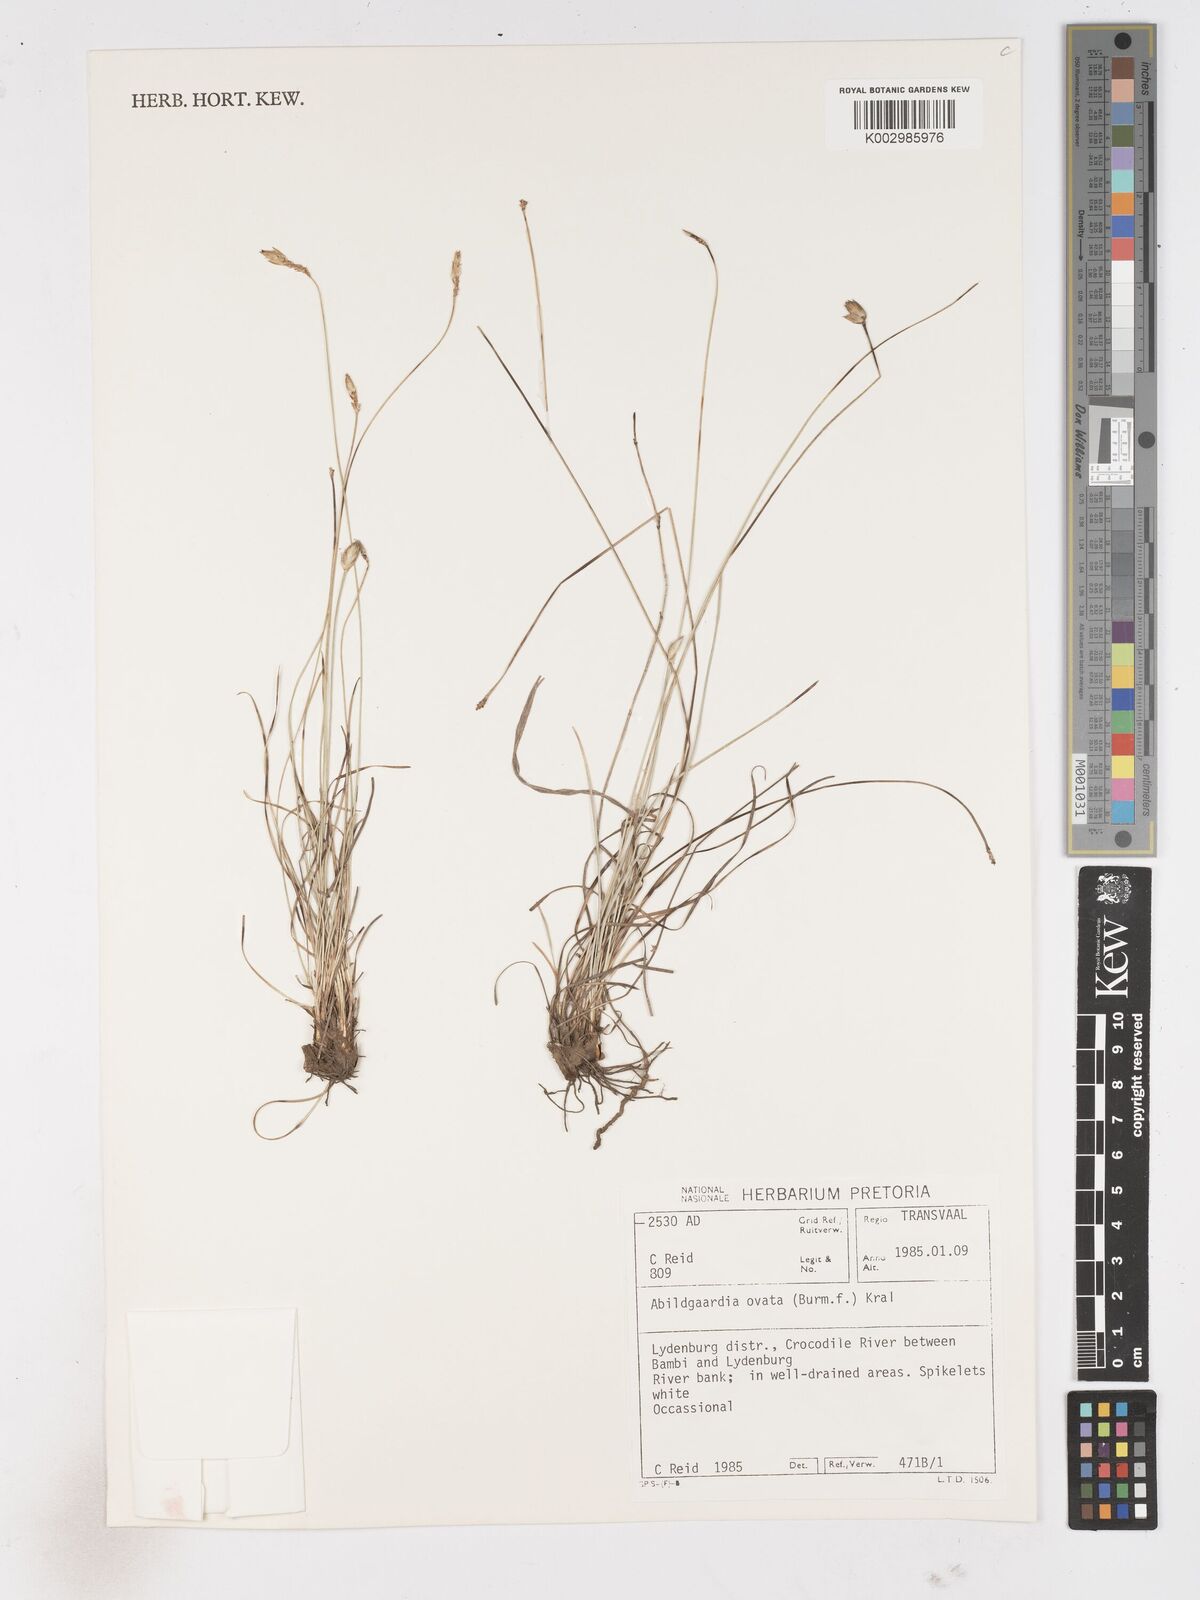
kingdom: Plantae
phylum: Tracheophyta
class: Liliopsida
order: Poales
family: Cyperaceae
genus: Abildgaardia
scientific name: Abildgaardia ovata
